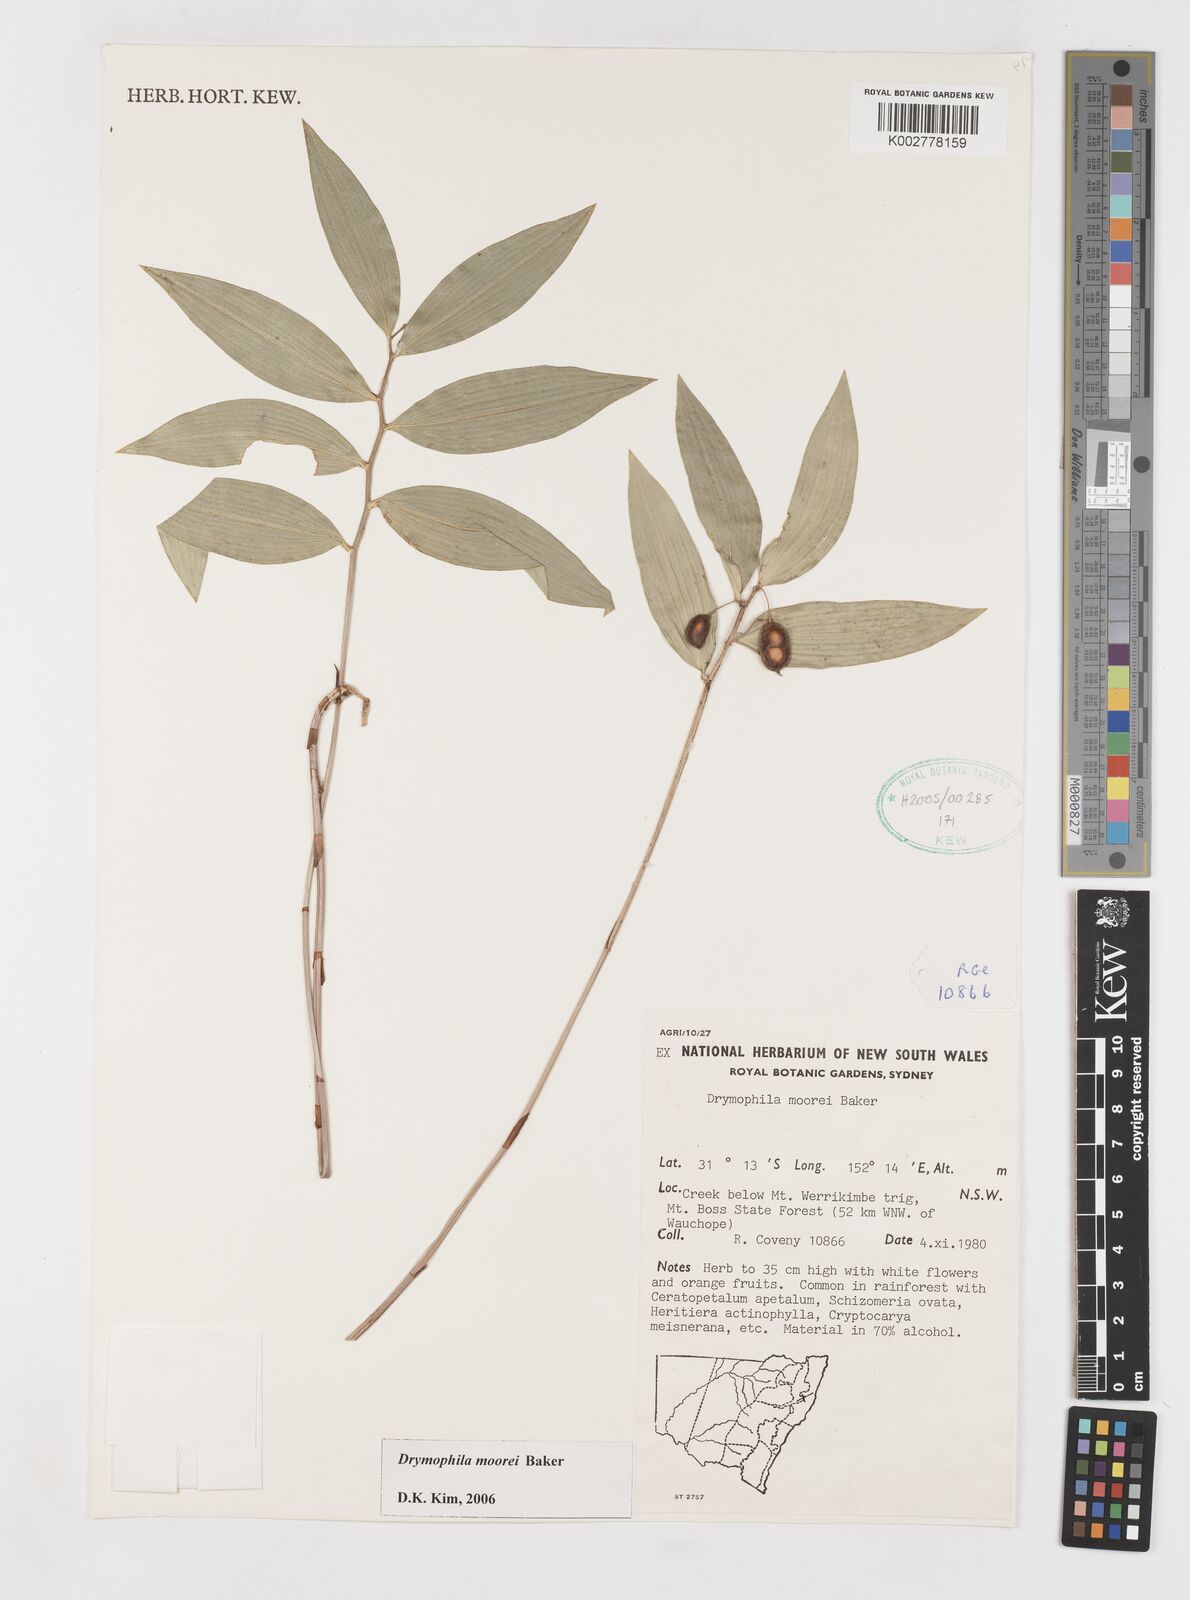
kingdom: Plantae
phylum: Tracheophyta
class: Liliopsida
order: Liliales
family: Alstroemeriaceae
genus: Drymophila
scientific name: Drymophila moorei
